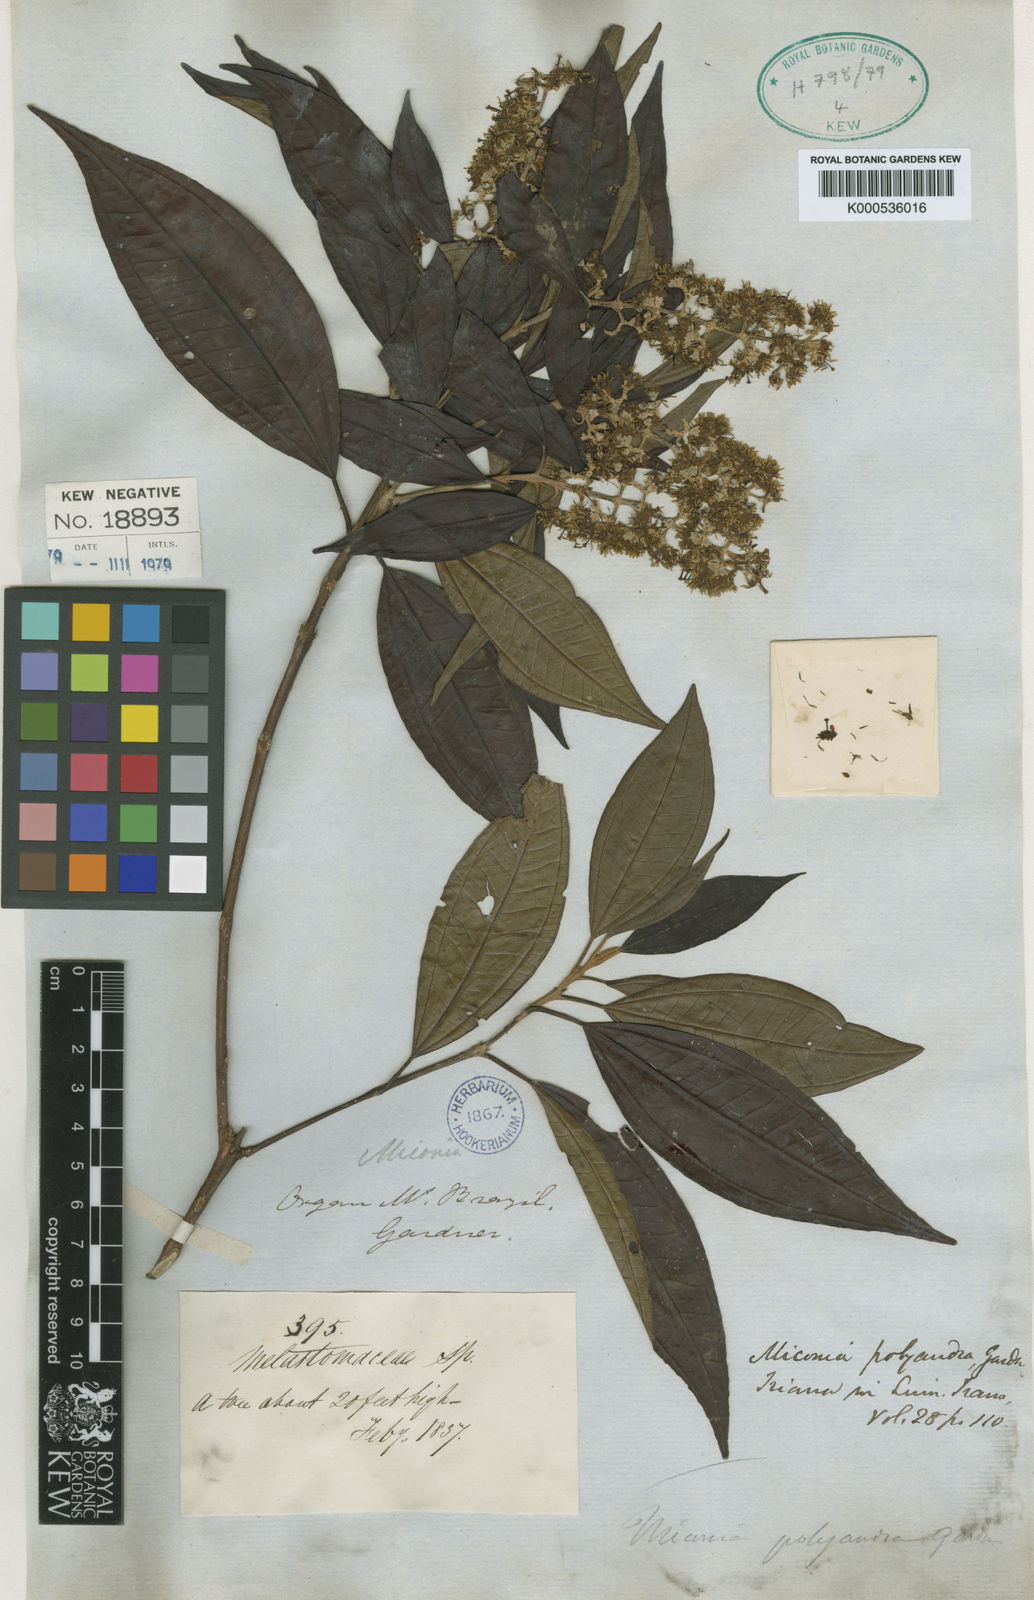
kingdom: Plantae
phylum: Tracheophyta
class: Magnoliopsida
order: Myrtales
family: Melastomataceae
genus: Miconia
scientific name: Miconia polyandra
